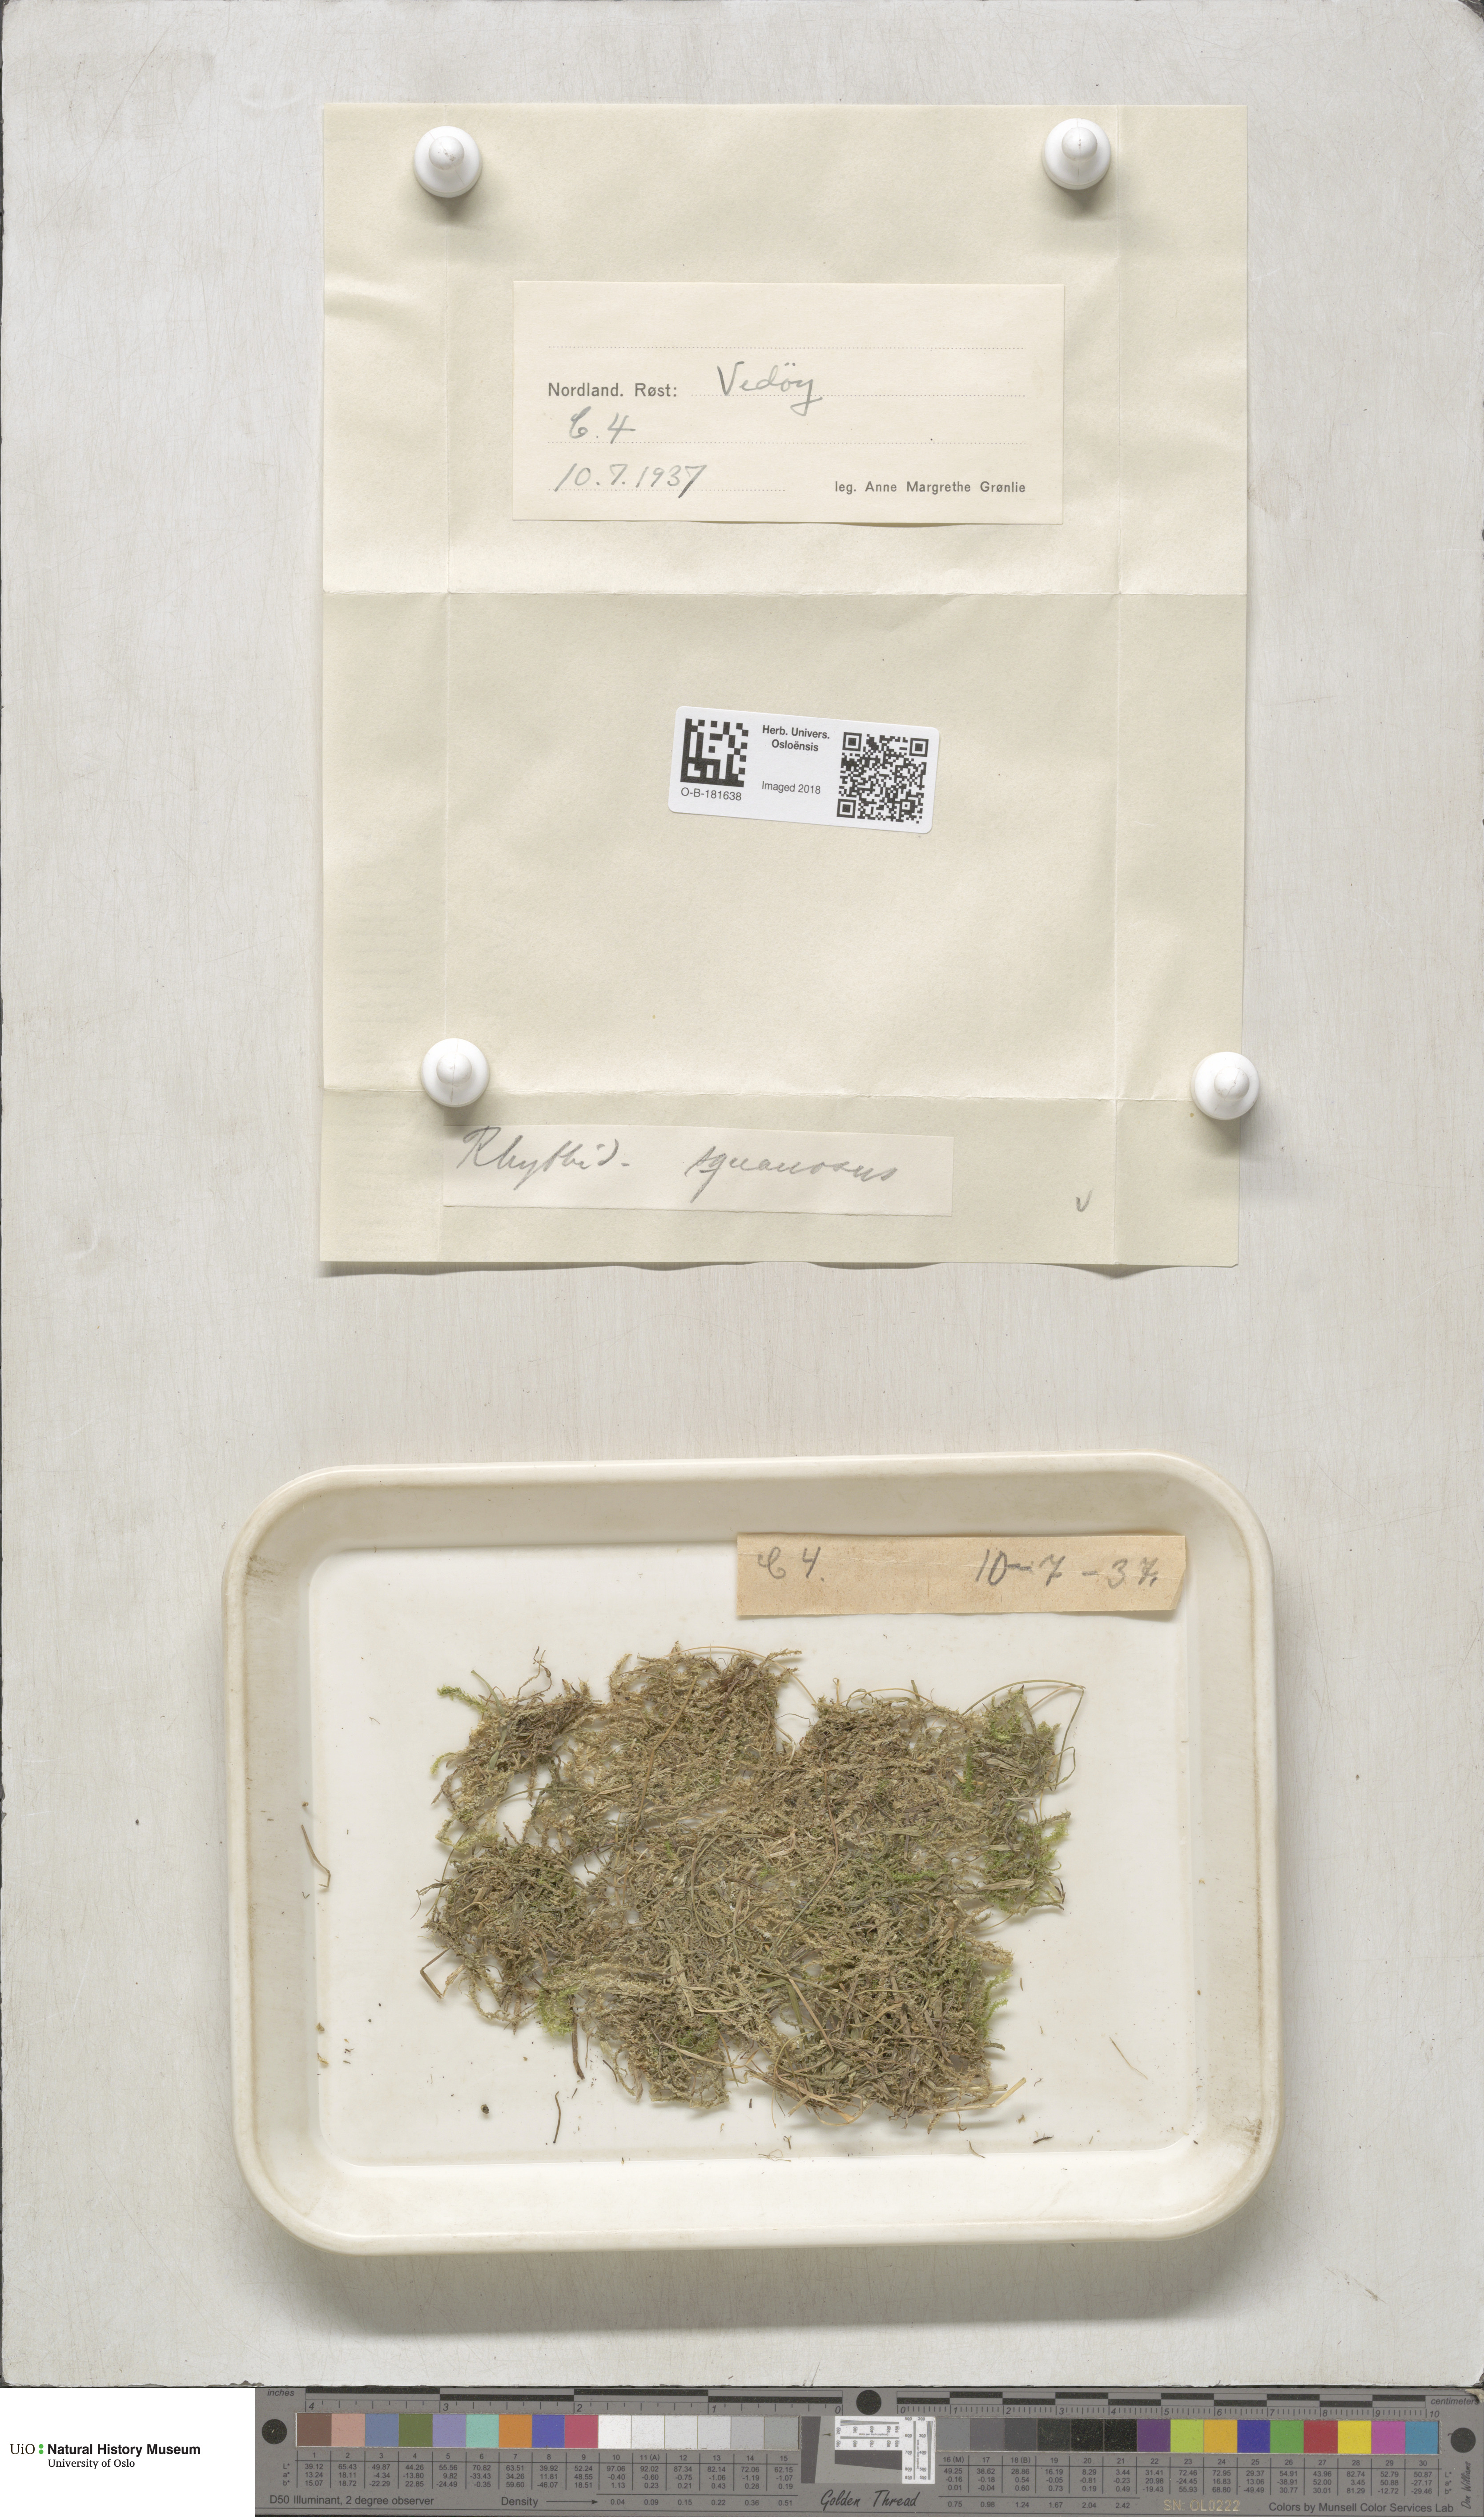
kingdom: Plantae
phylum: Bryophyta
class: Bryopsida
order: Hypnales
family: Hylocomiaceae
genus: Rhytidiadelphus
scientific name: Rhytidiadelphus squarrosus
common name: Springy turf-moss
